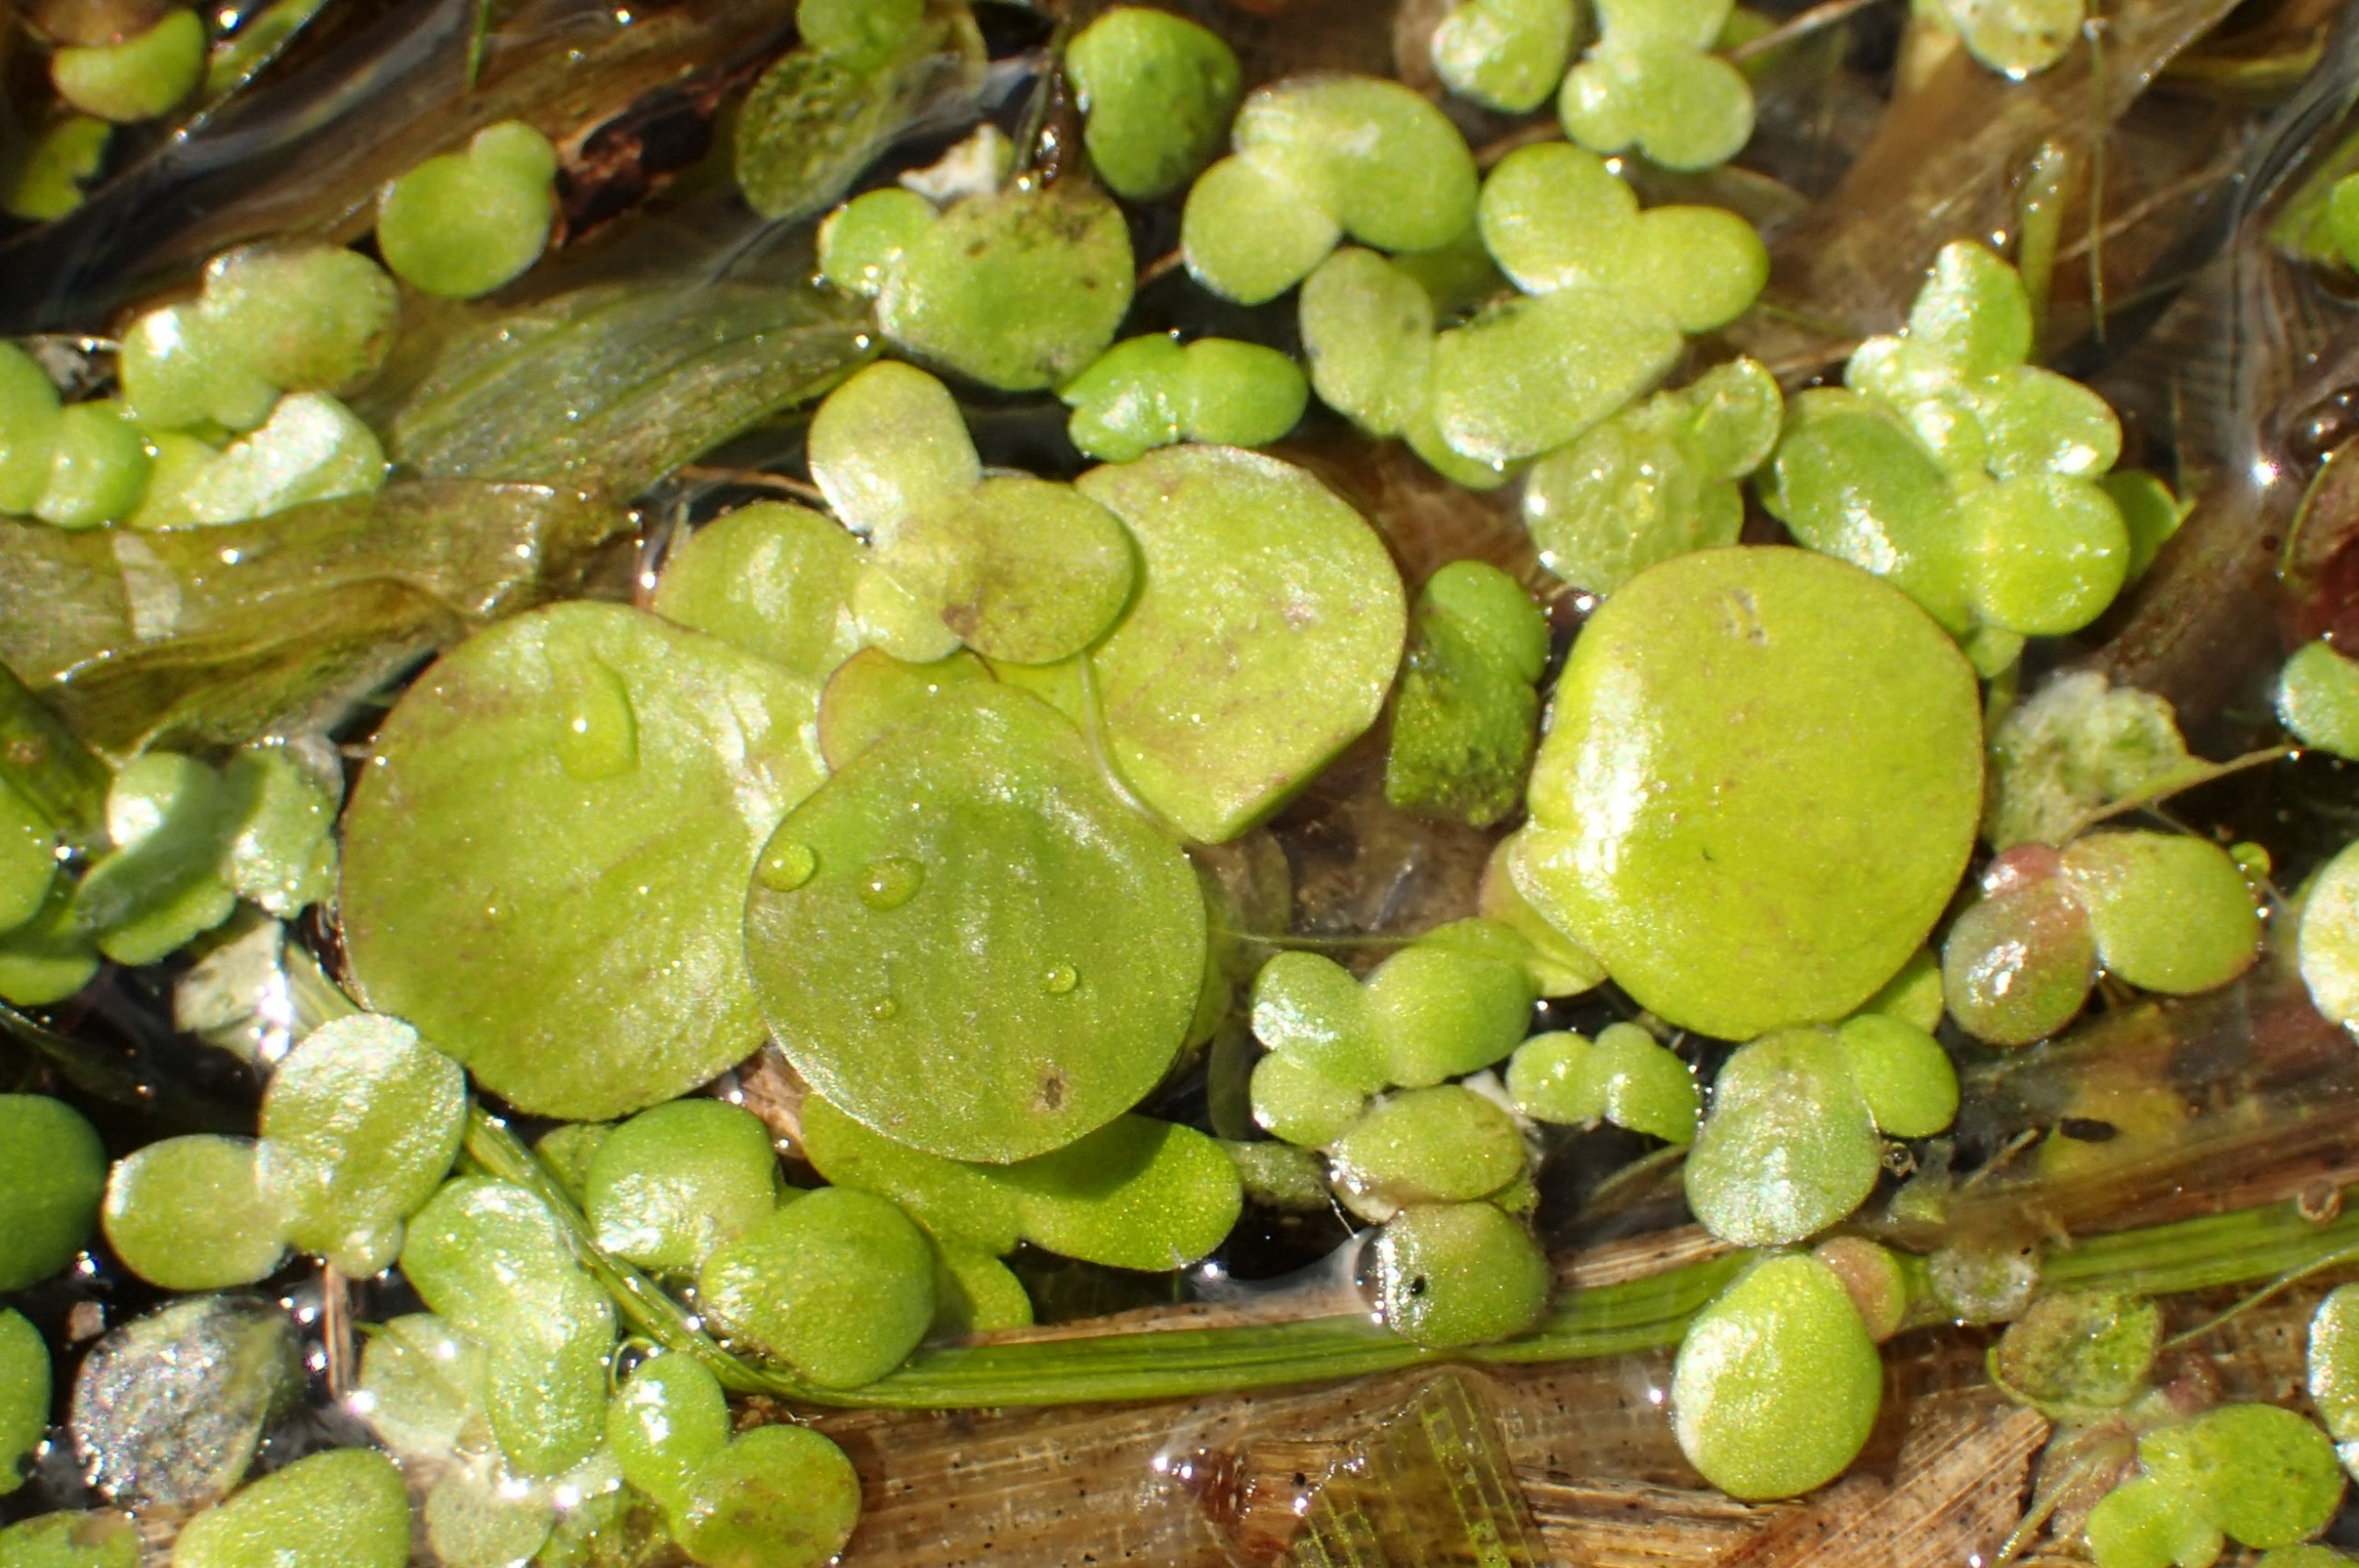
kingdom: Plantae
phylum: Tracheophyta
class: Liliopsida
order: Alismatales
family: Araceae
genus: Spirodela
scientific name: Spirodela polyrhiza
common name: Stor andemad
